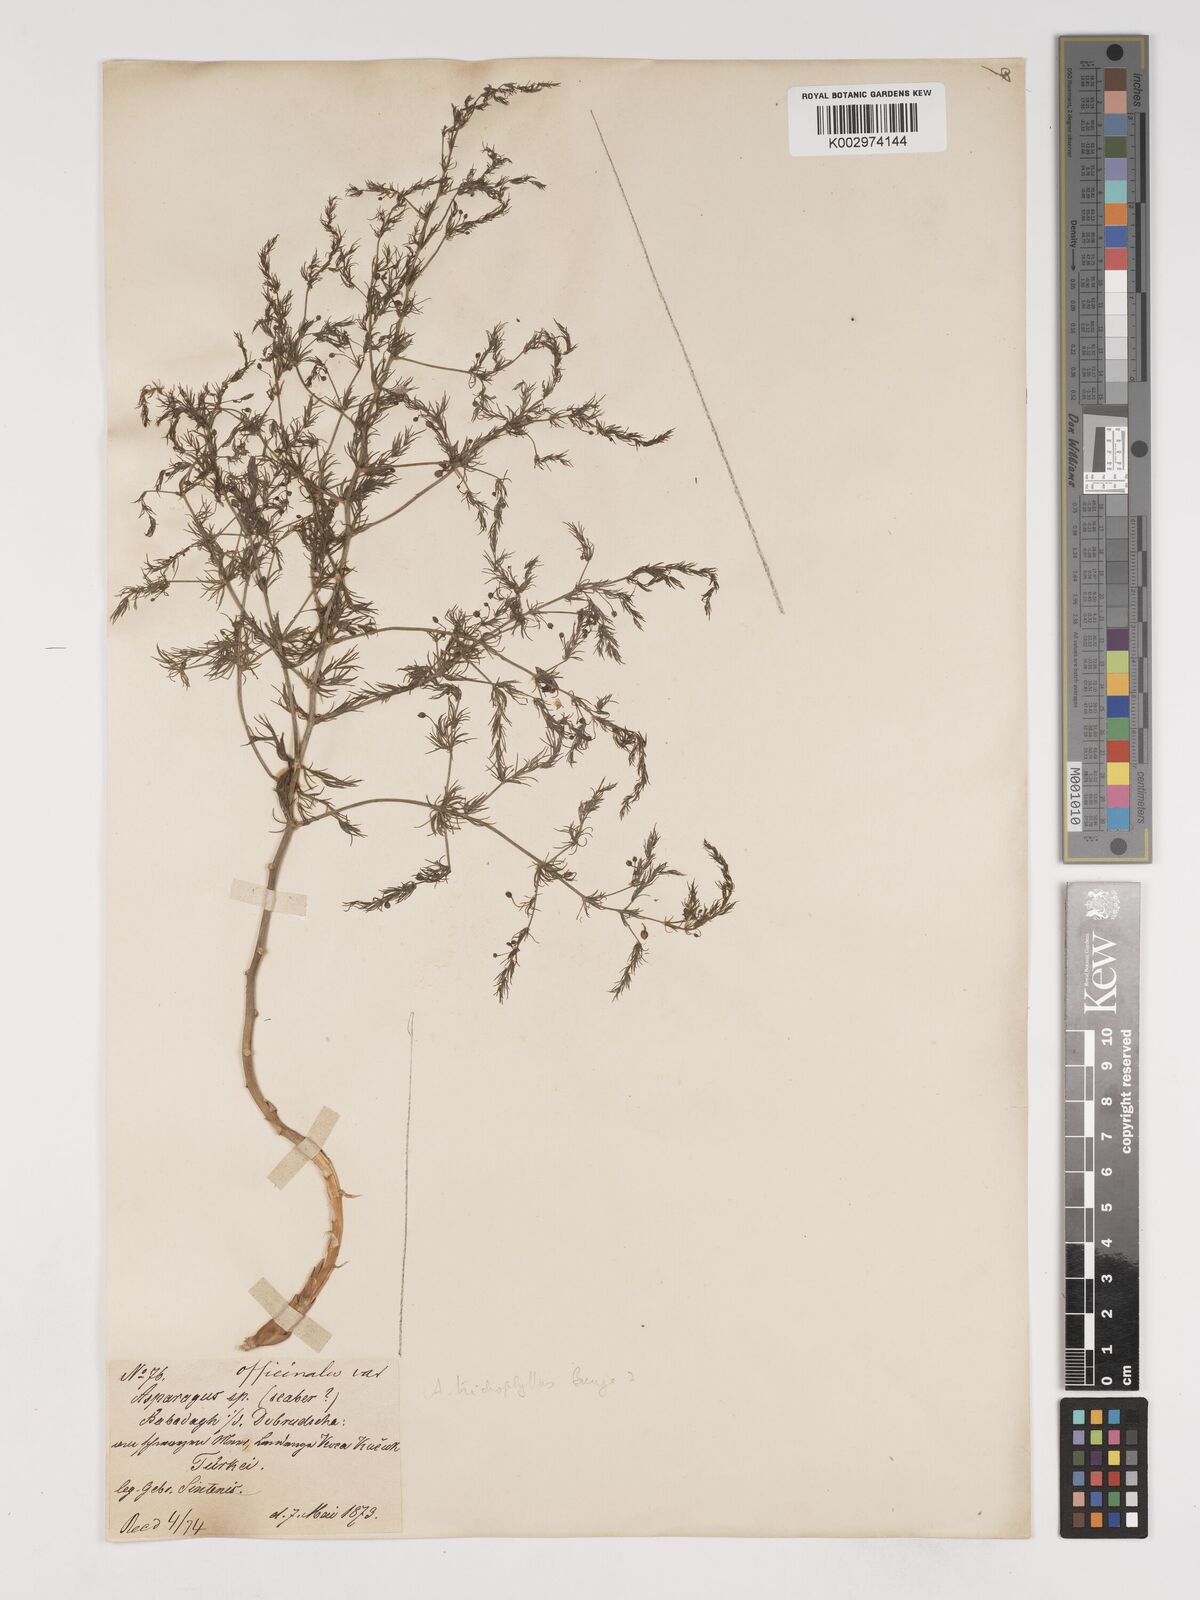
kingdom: Plantae
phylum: Tracheophyta
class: Liliopsida
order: Asparagales
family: Asparagaceae
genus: Asparagus
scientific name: Asparagus trichophyllus
